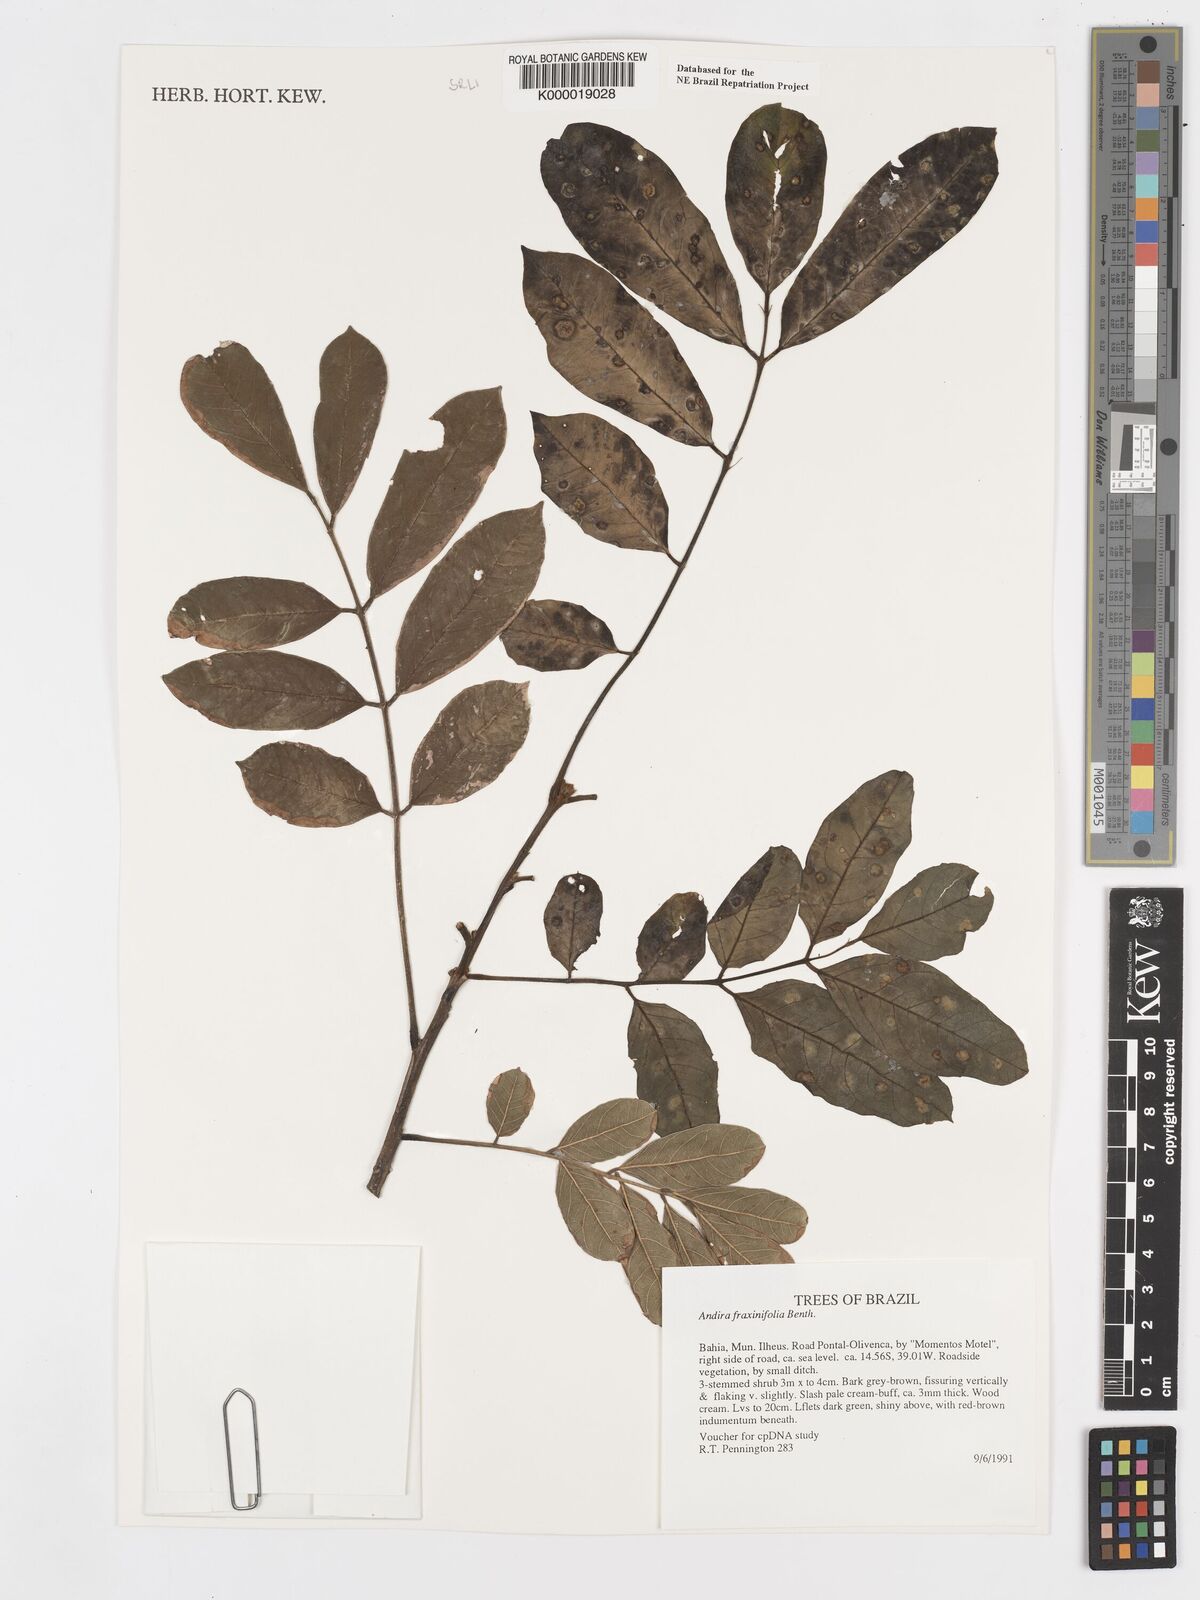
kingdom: Plantae
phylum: Tracheophyta
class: Magnoliopsida
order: Fabales
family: Fabaceae
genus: Andira
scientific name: Andira fraxinifolia
